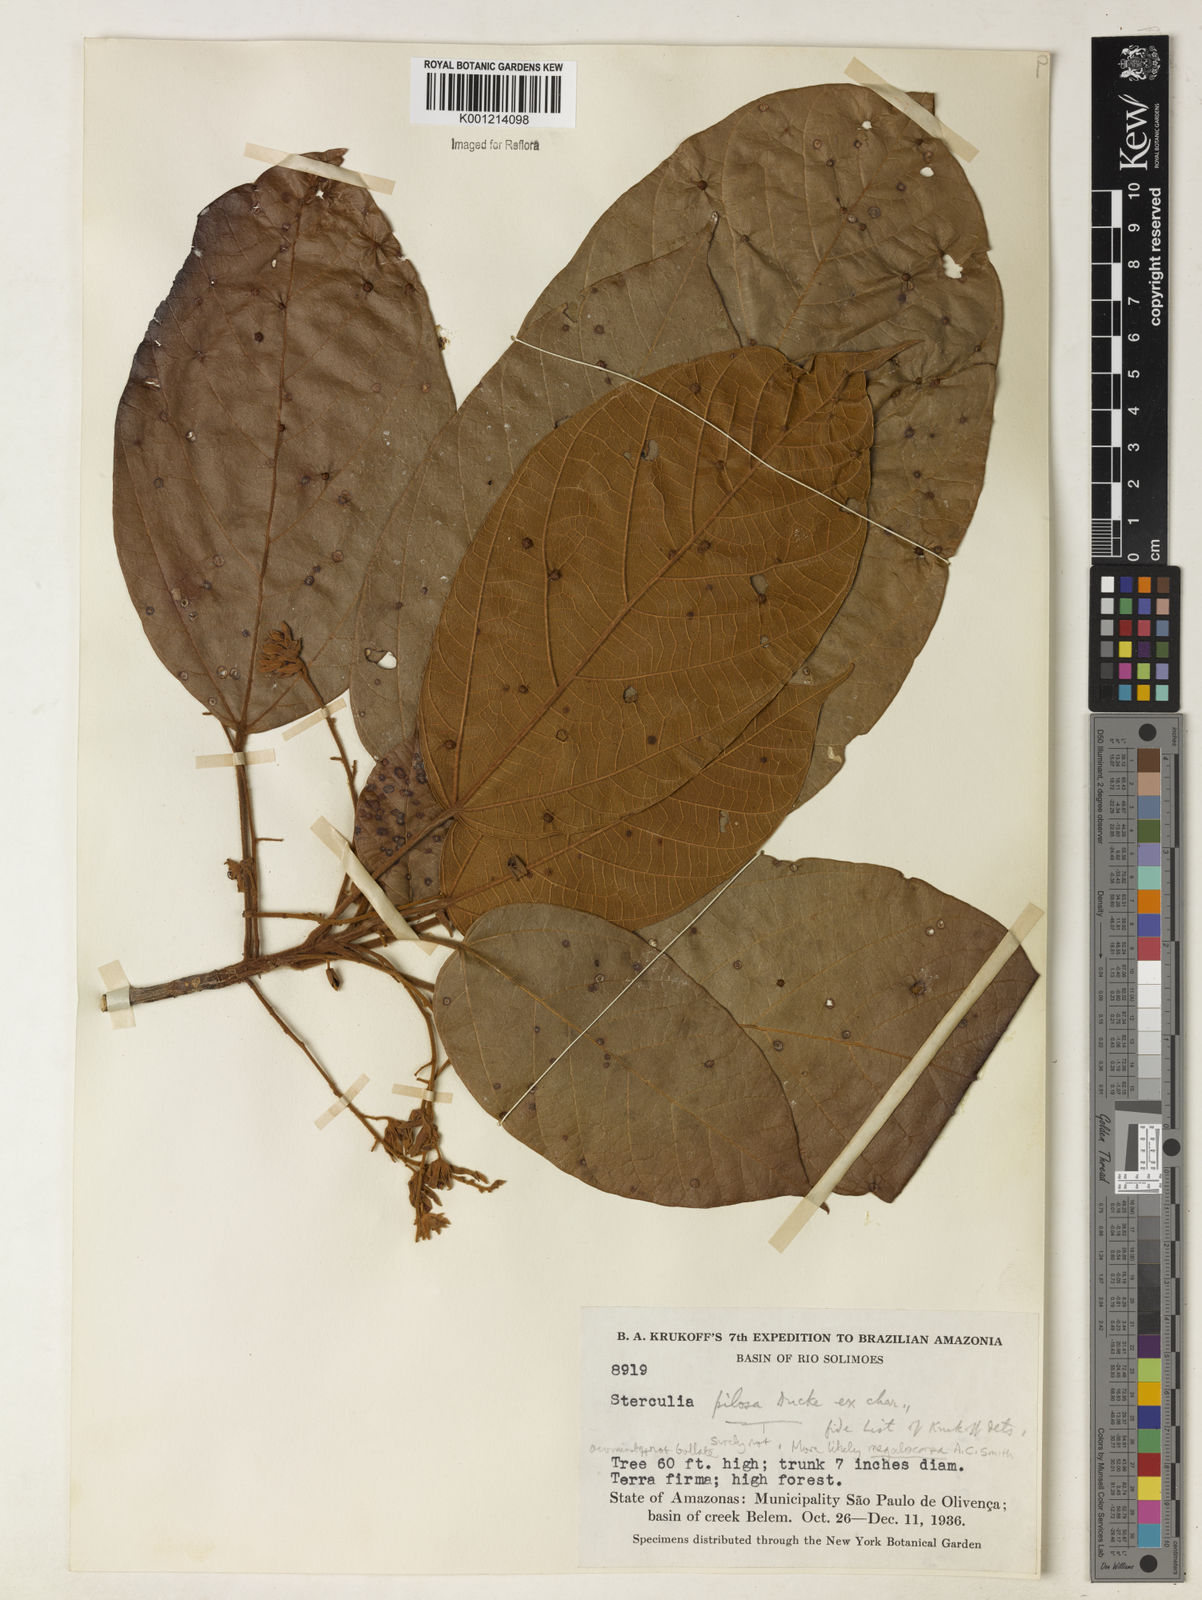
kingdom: Plantae
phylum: Tracheophyta
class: Magnoliopsida
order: Malvales
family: Malvaceae
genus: Sterculia
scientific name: Sterculia guapayensis
